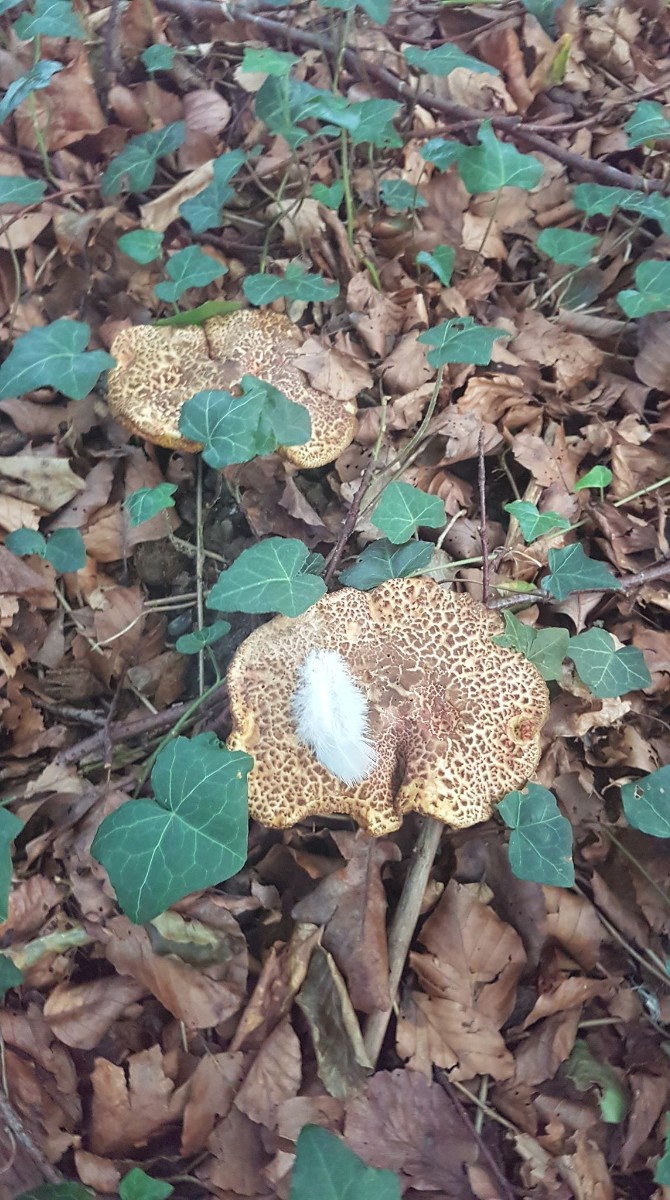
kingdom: Fungi
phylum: Basidiomycota
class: Agaricomycetes
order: Boletales
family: Boletaceae
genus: Xerocomellus
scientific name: Xerocomellus
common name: dværgrørhat
